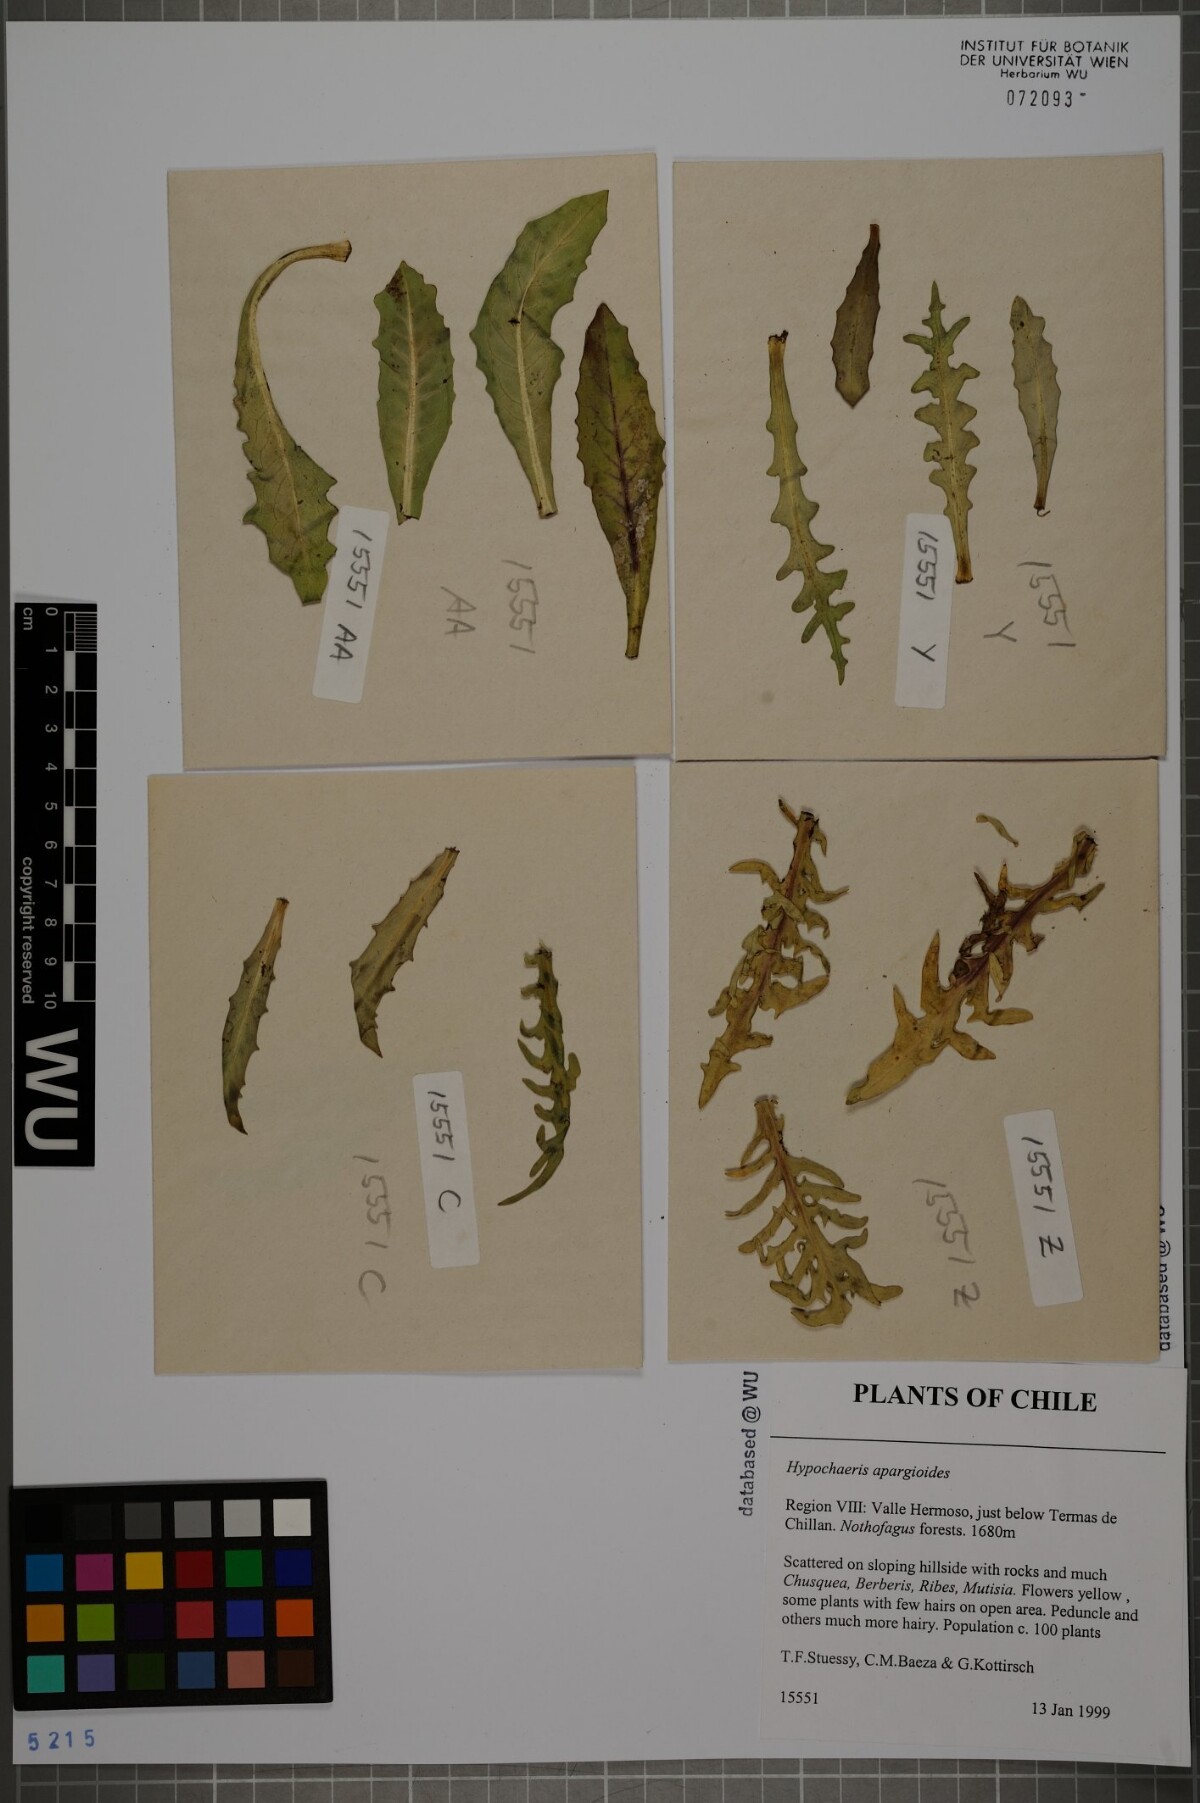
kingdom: Plantae
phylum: Tracheophyta
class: Magnoliopsida
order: Asterales
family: Asteraceae
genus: Hypochaeris
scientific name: Hypochaeris apargioides
